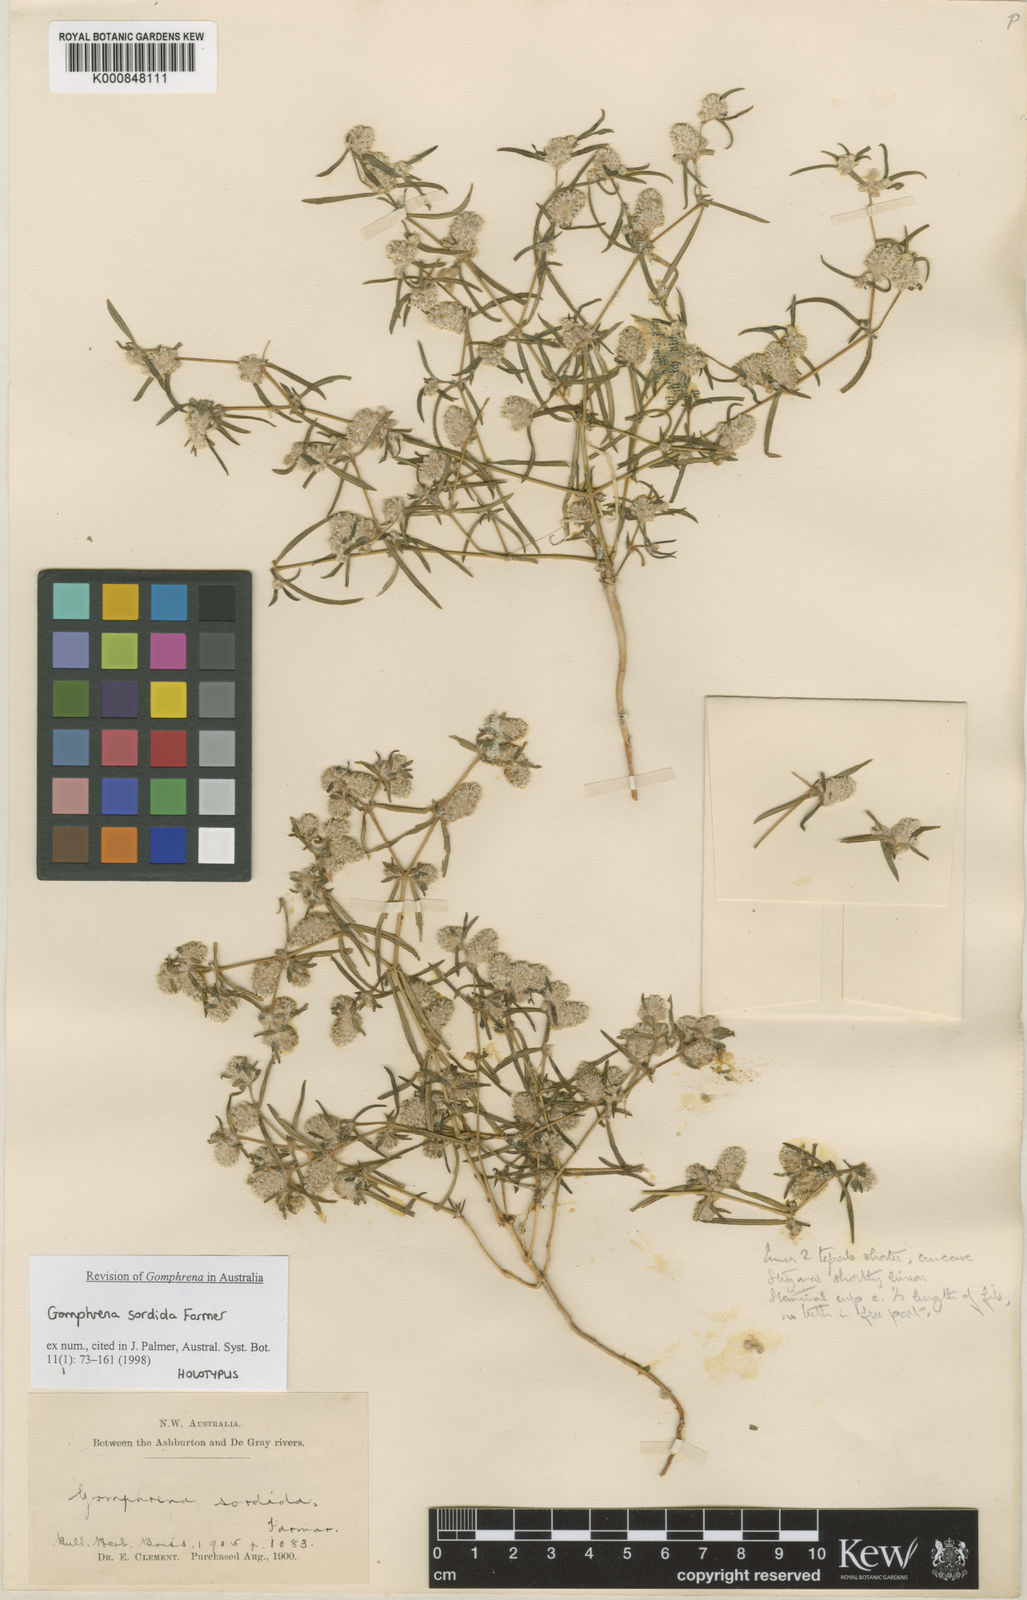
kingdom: Plantae
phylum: Tracheophyta
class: Magnoliopsida
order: Caryophyllales
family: Amaranthaceae
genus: Gomphrena
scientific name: Gomphrena sordida
